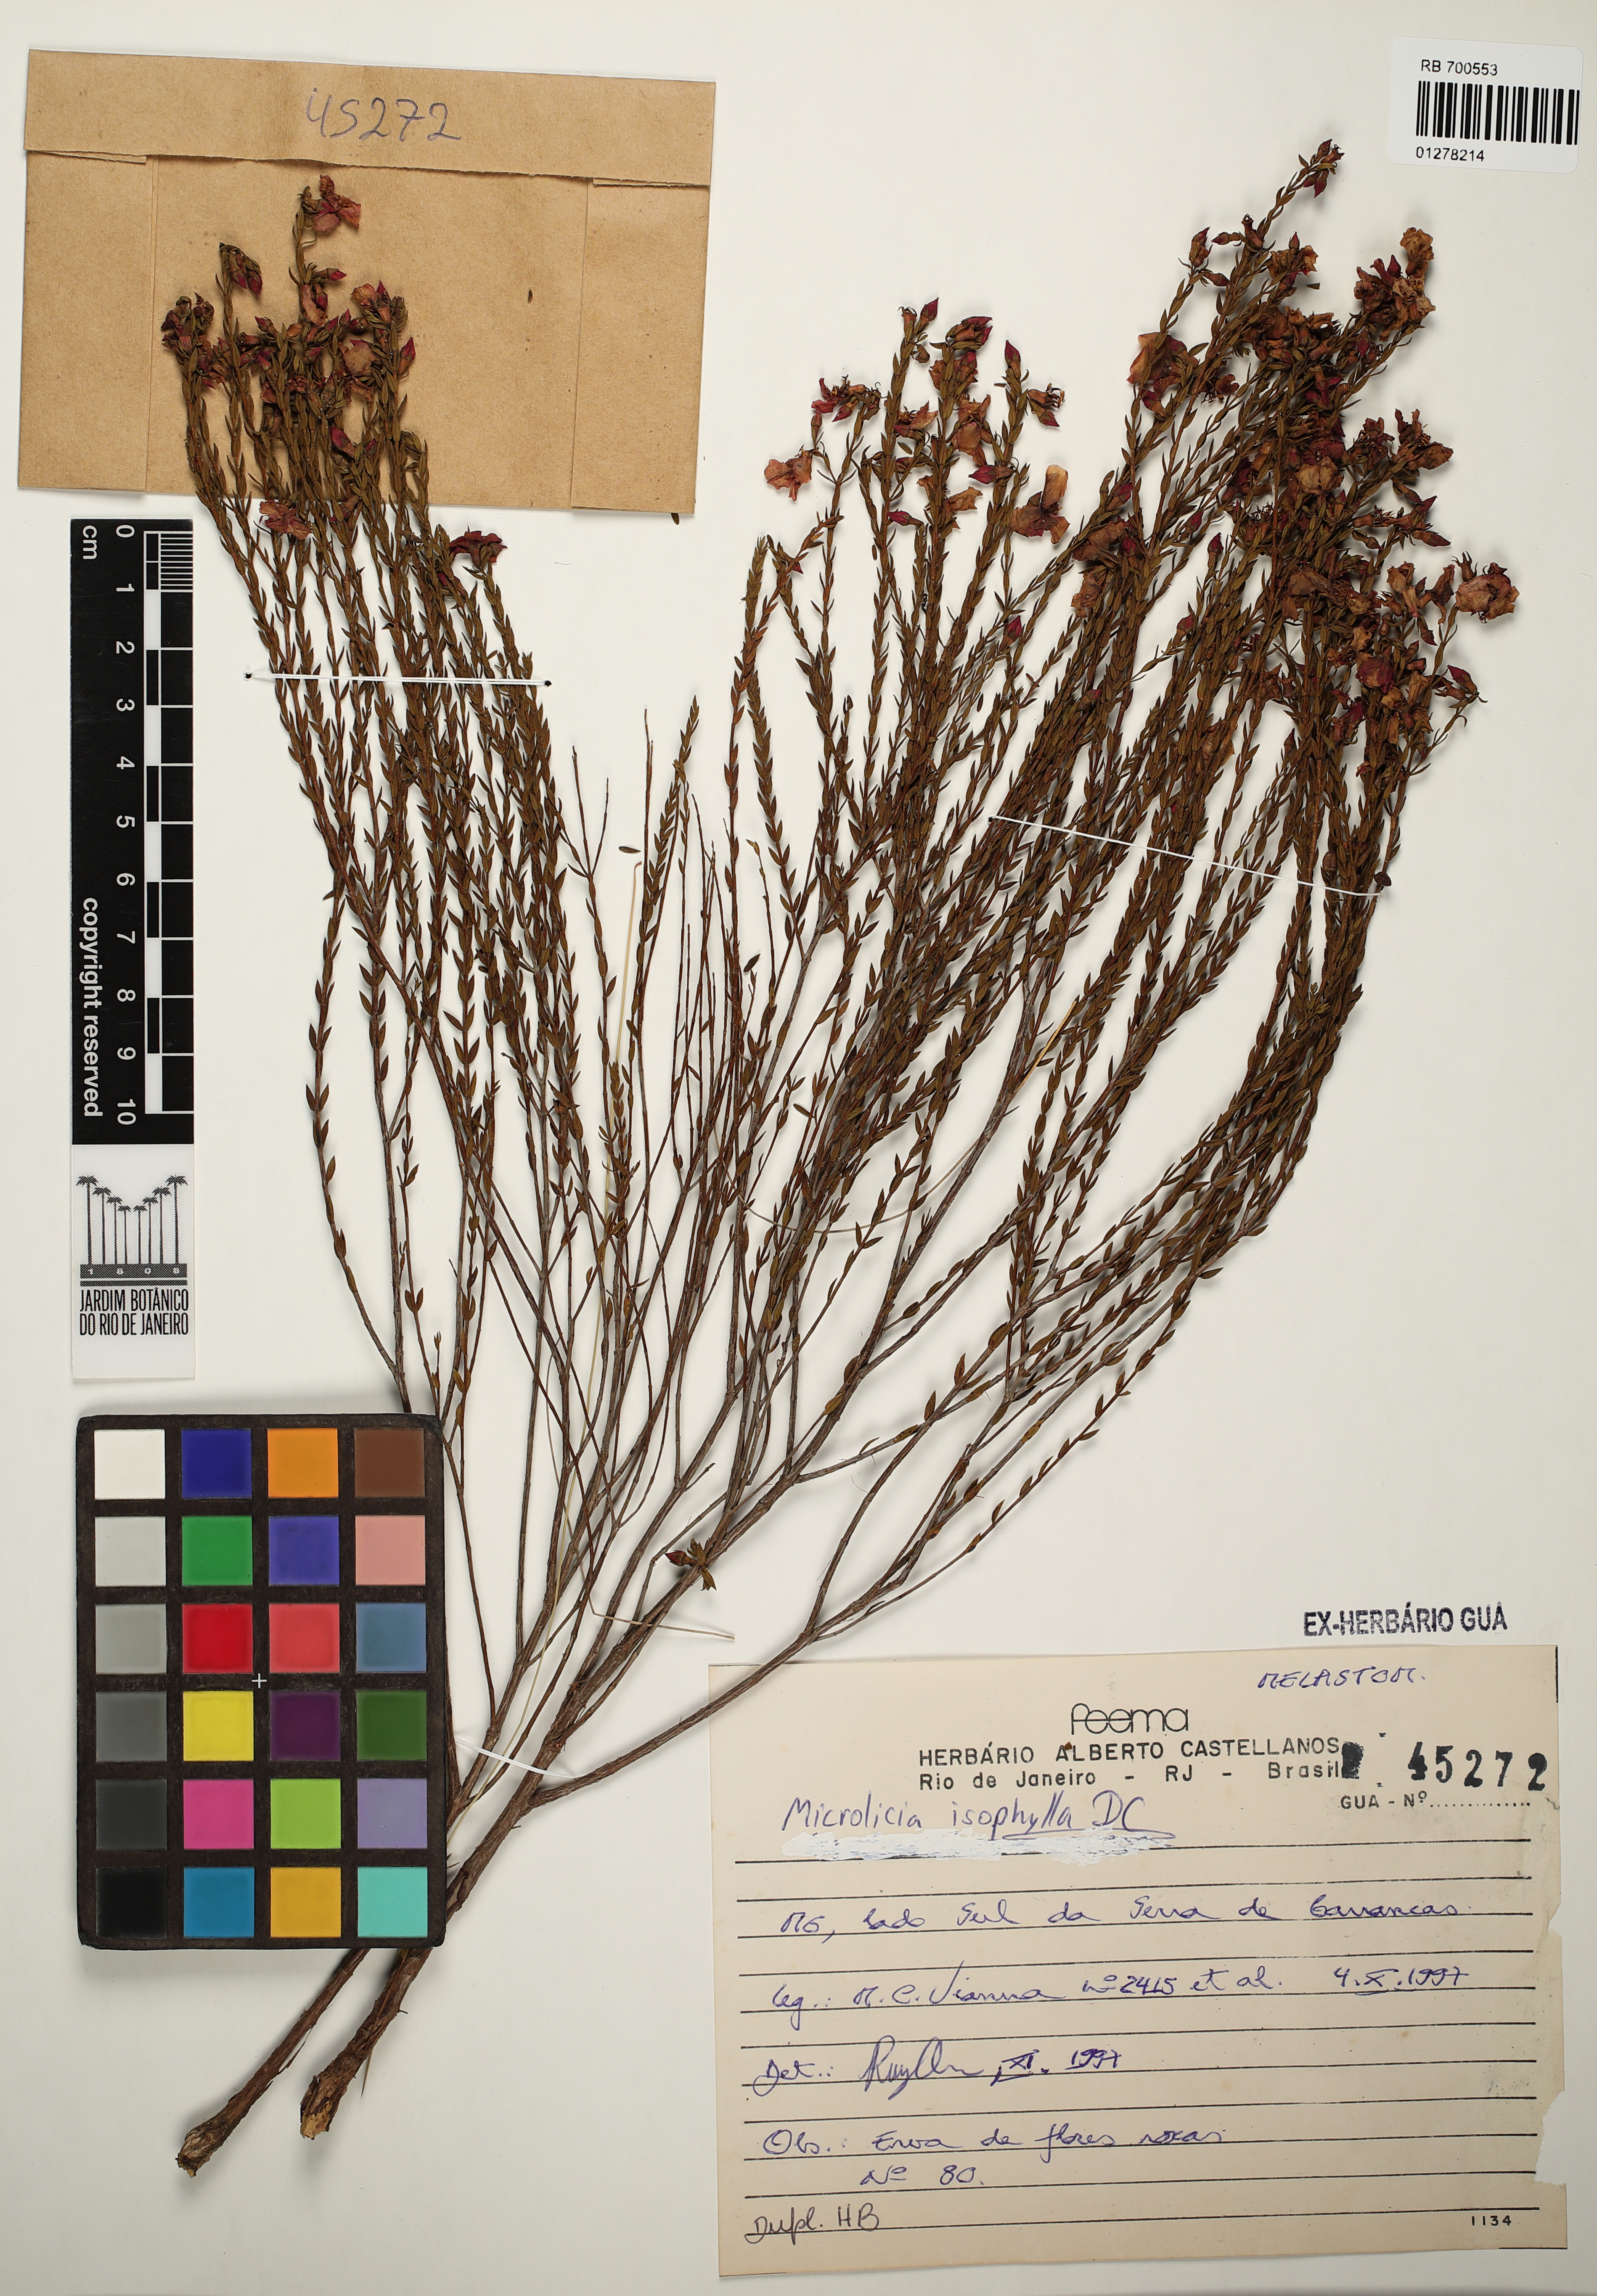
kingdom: Plantae
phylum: Tracheophyta
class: Magnoliopsida
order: Myrtales
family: Melastomataceae
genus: Microlicia
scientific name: Microlicia isophylla
